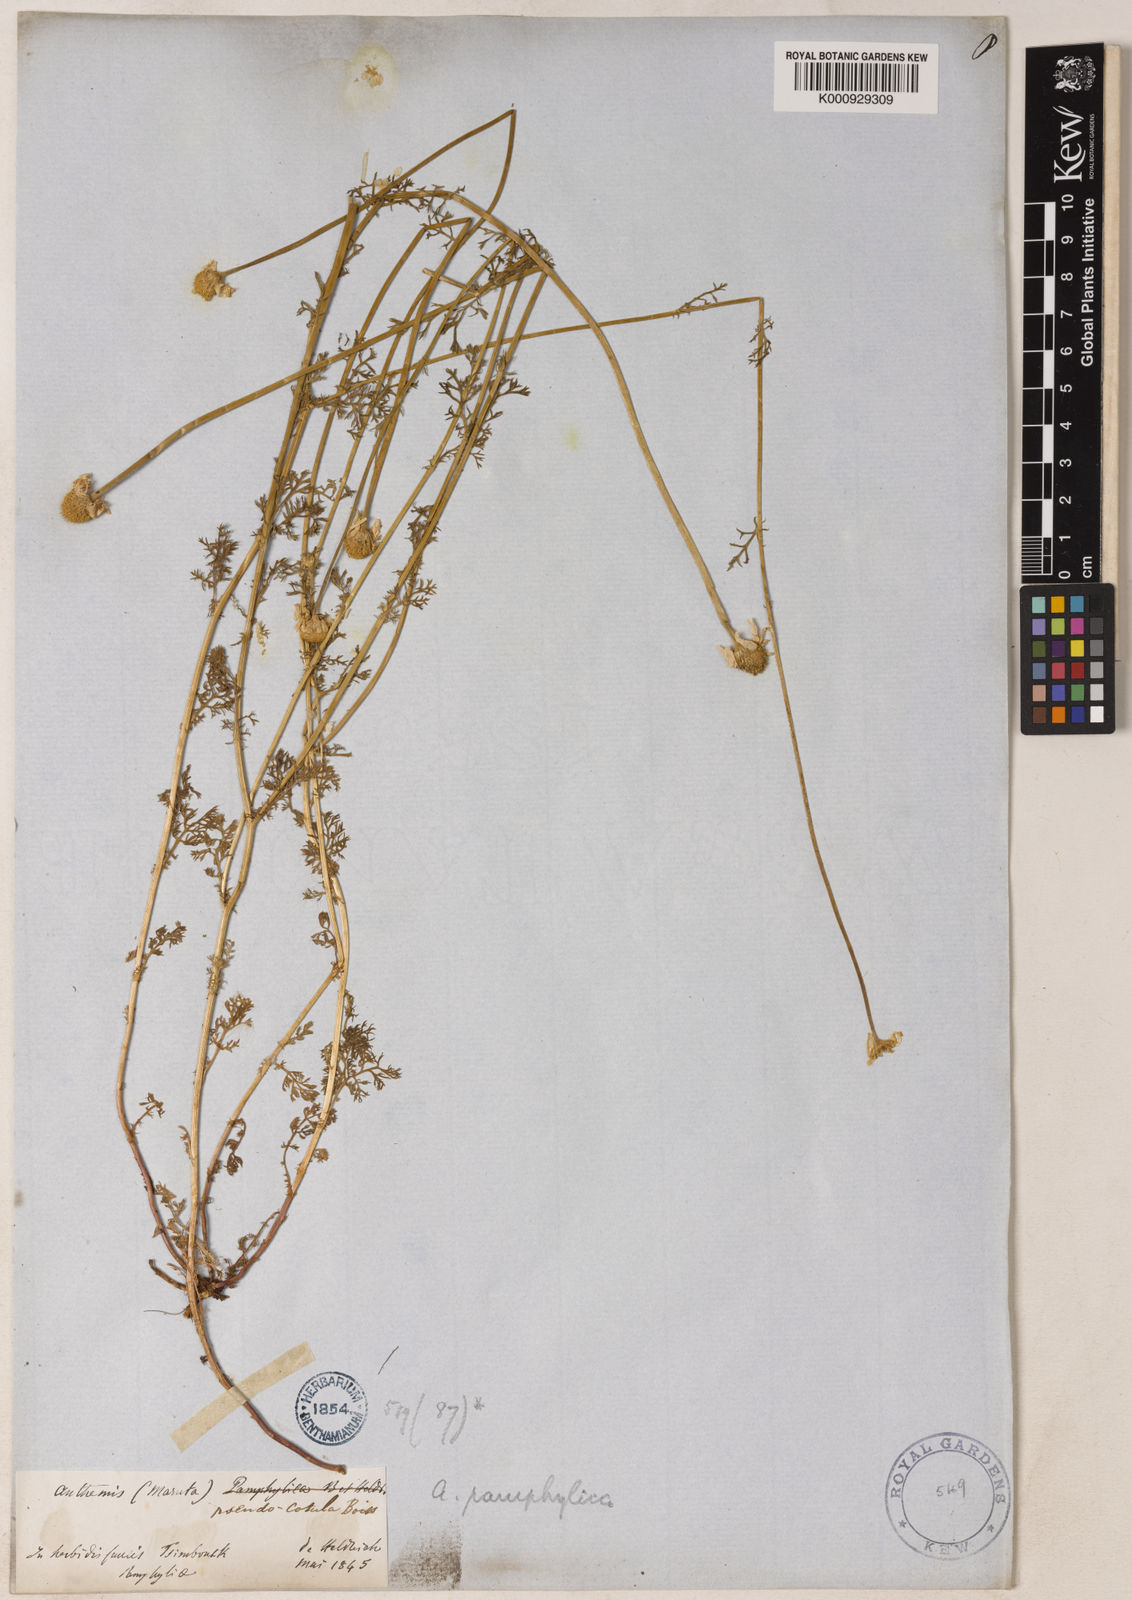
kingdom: Plantae
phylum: Tracheophyta
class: Magnoliopsida
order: Asterales
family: Asteraceae
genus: Anthemis
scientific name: Anthemis pseudocotula
